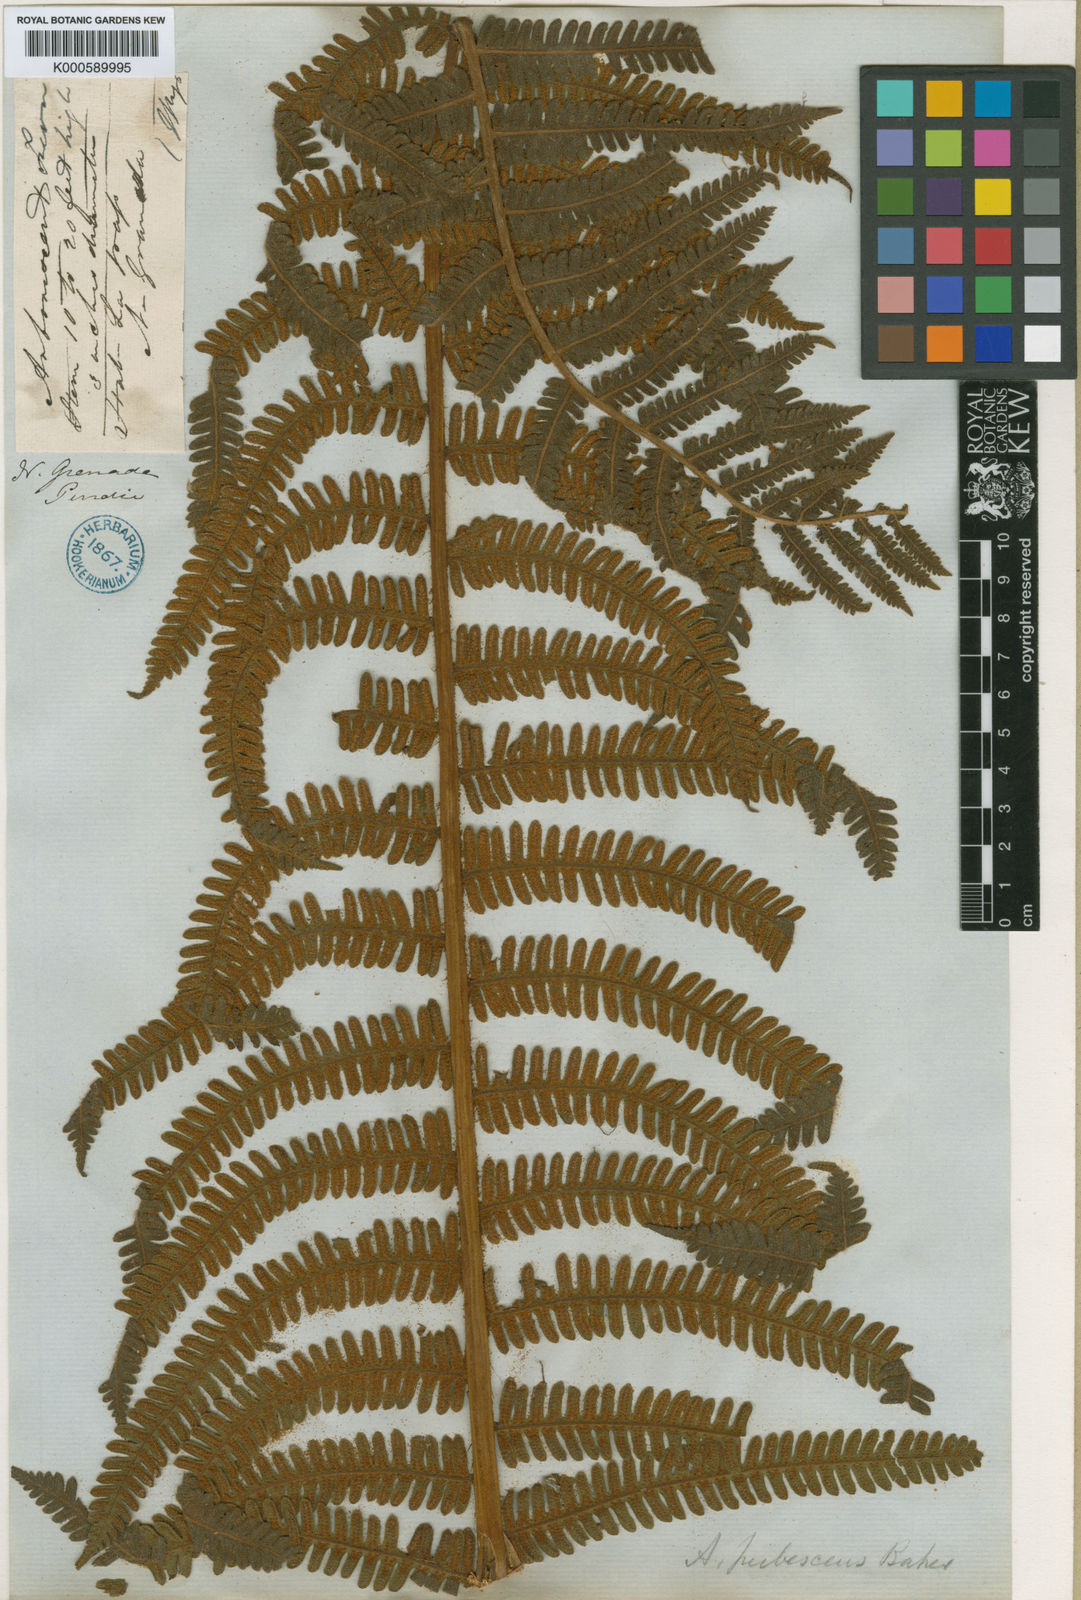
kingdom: Plantae
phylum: Tracheophyta
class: Polypodiopsida
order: Cyatheales
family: Cyatheaceae
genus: Alsophila
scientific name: Alsophila auneae
